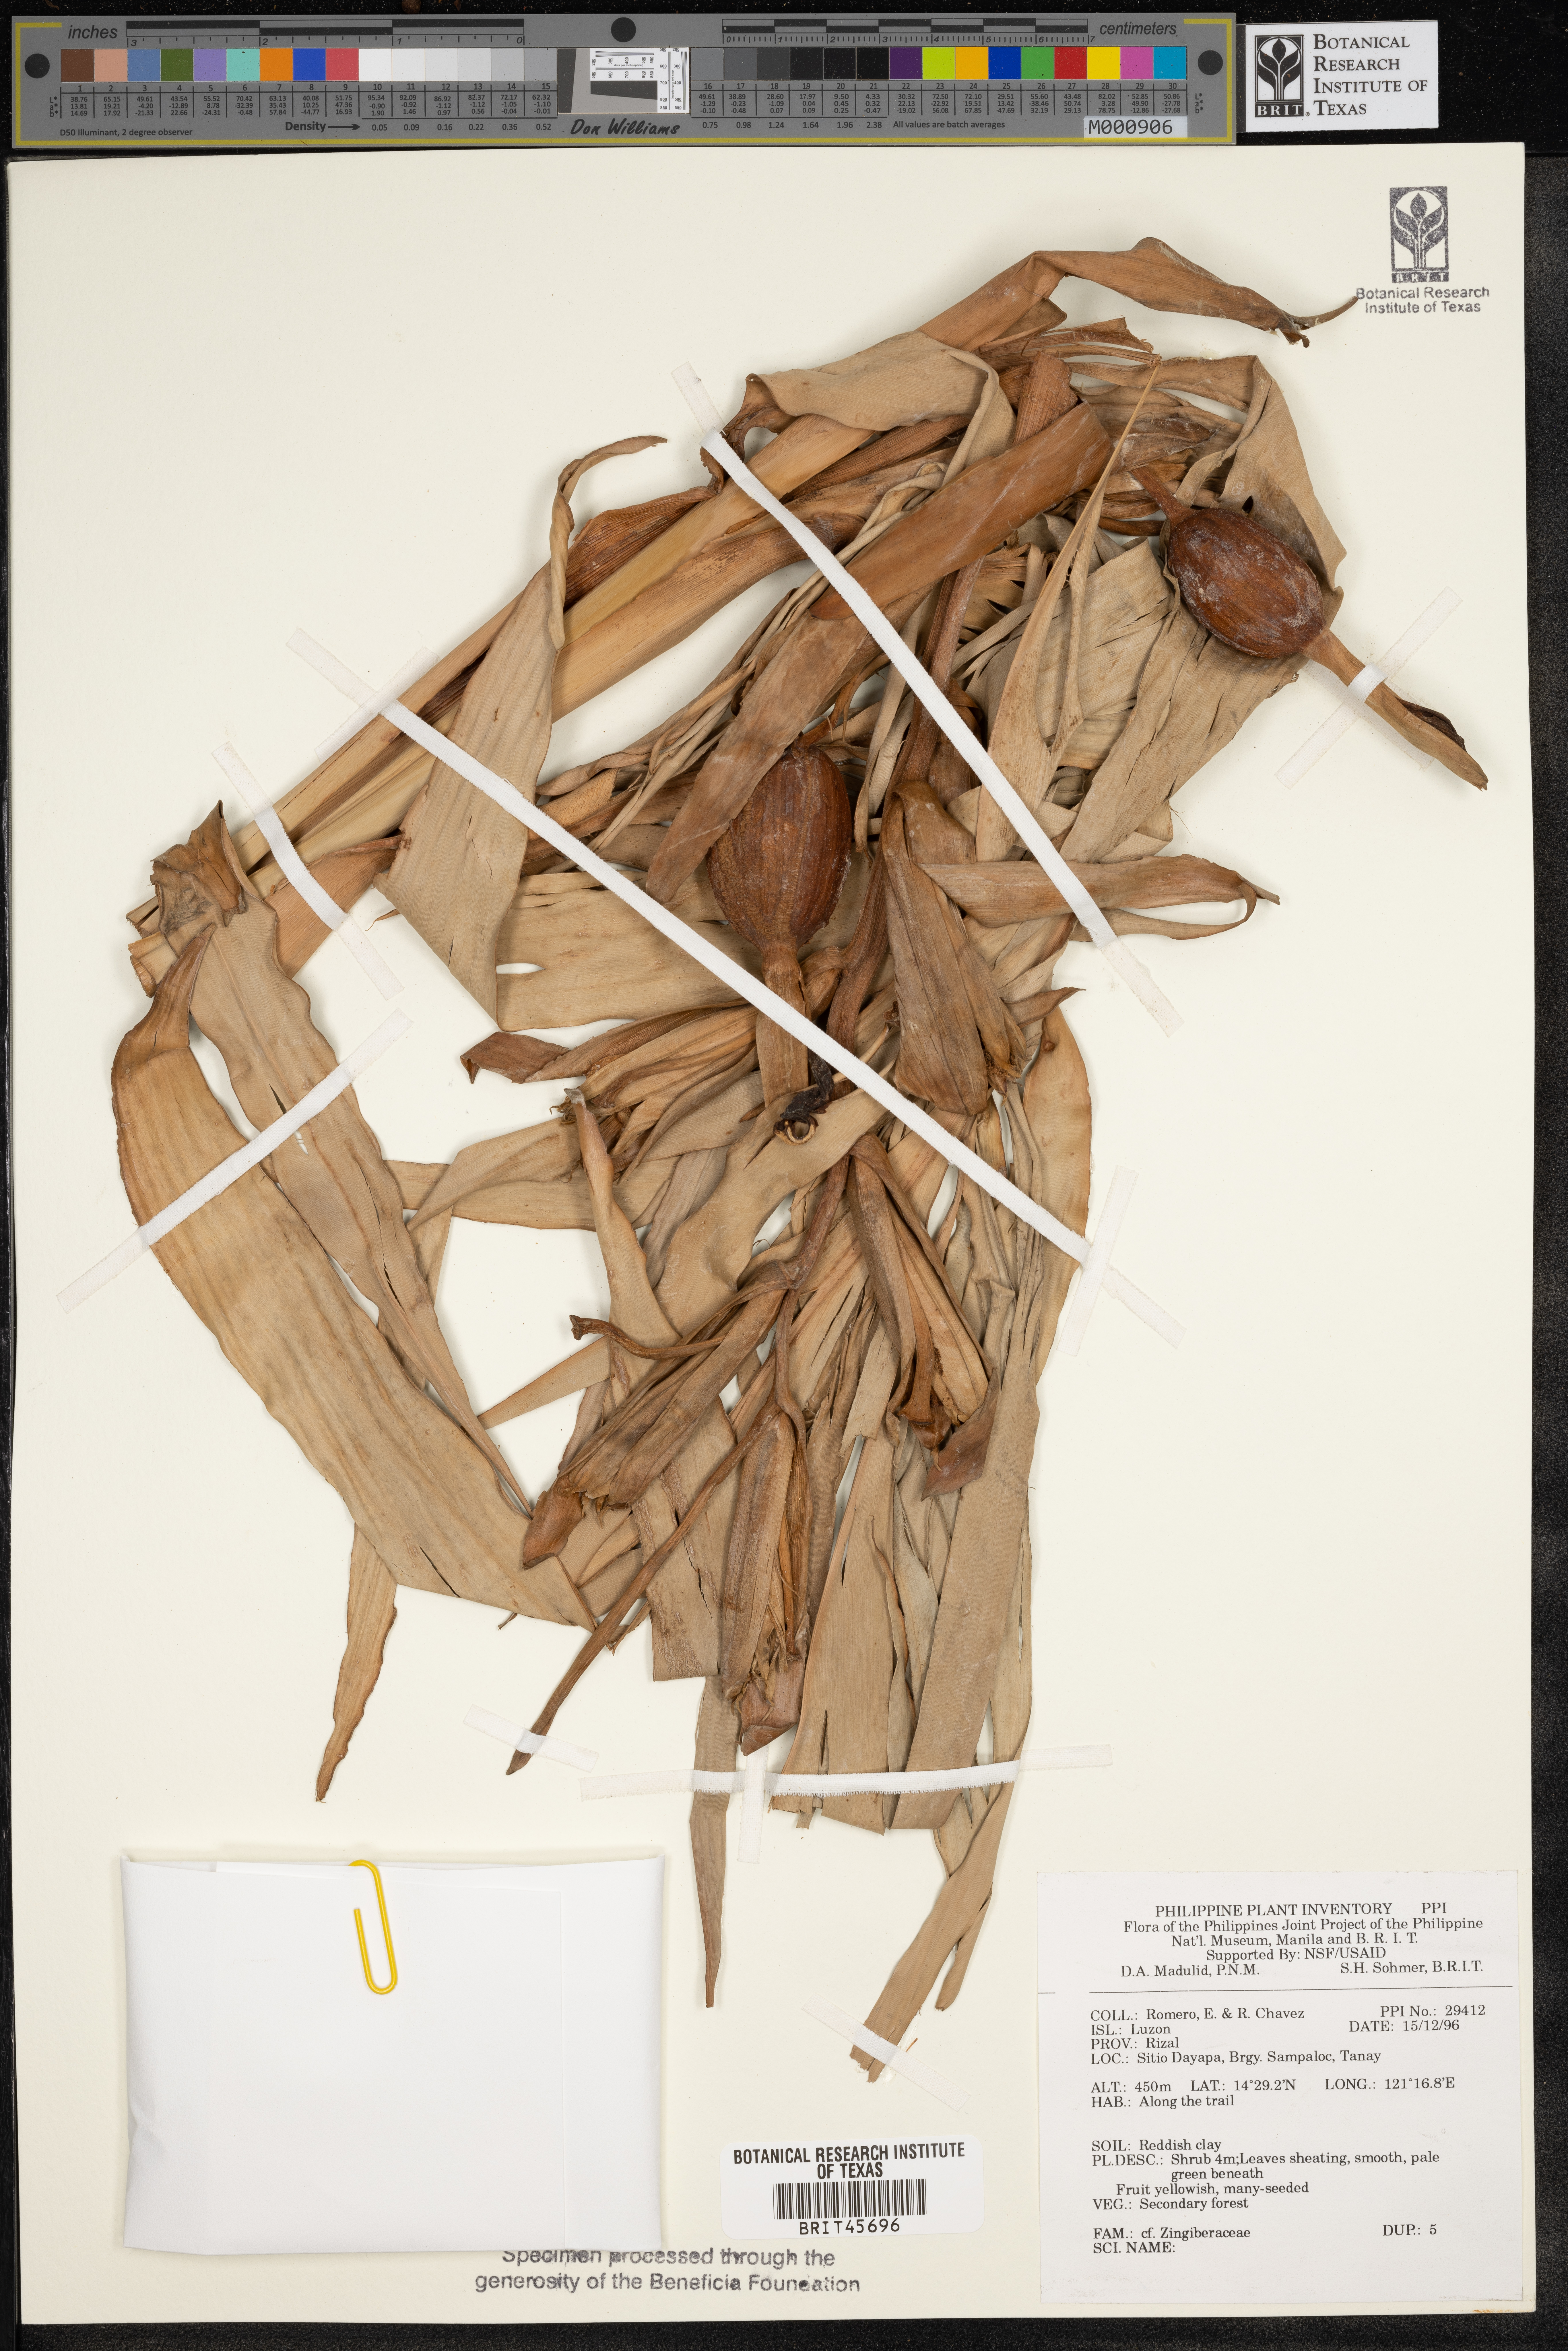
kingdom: Plantae
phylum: Tracheophyta
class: Liliopsida
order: Zingiberales
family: Zingiberaceae
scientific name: Zingiberaceae
